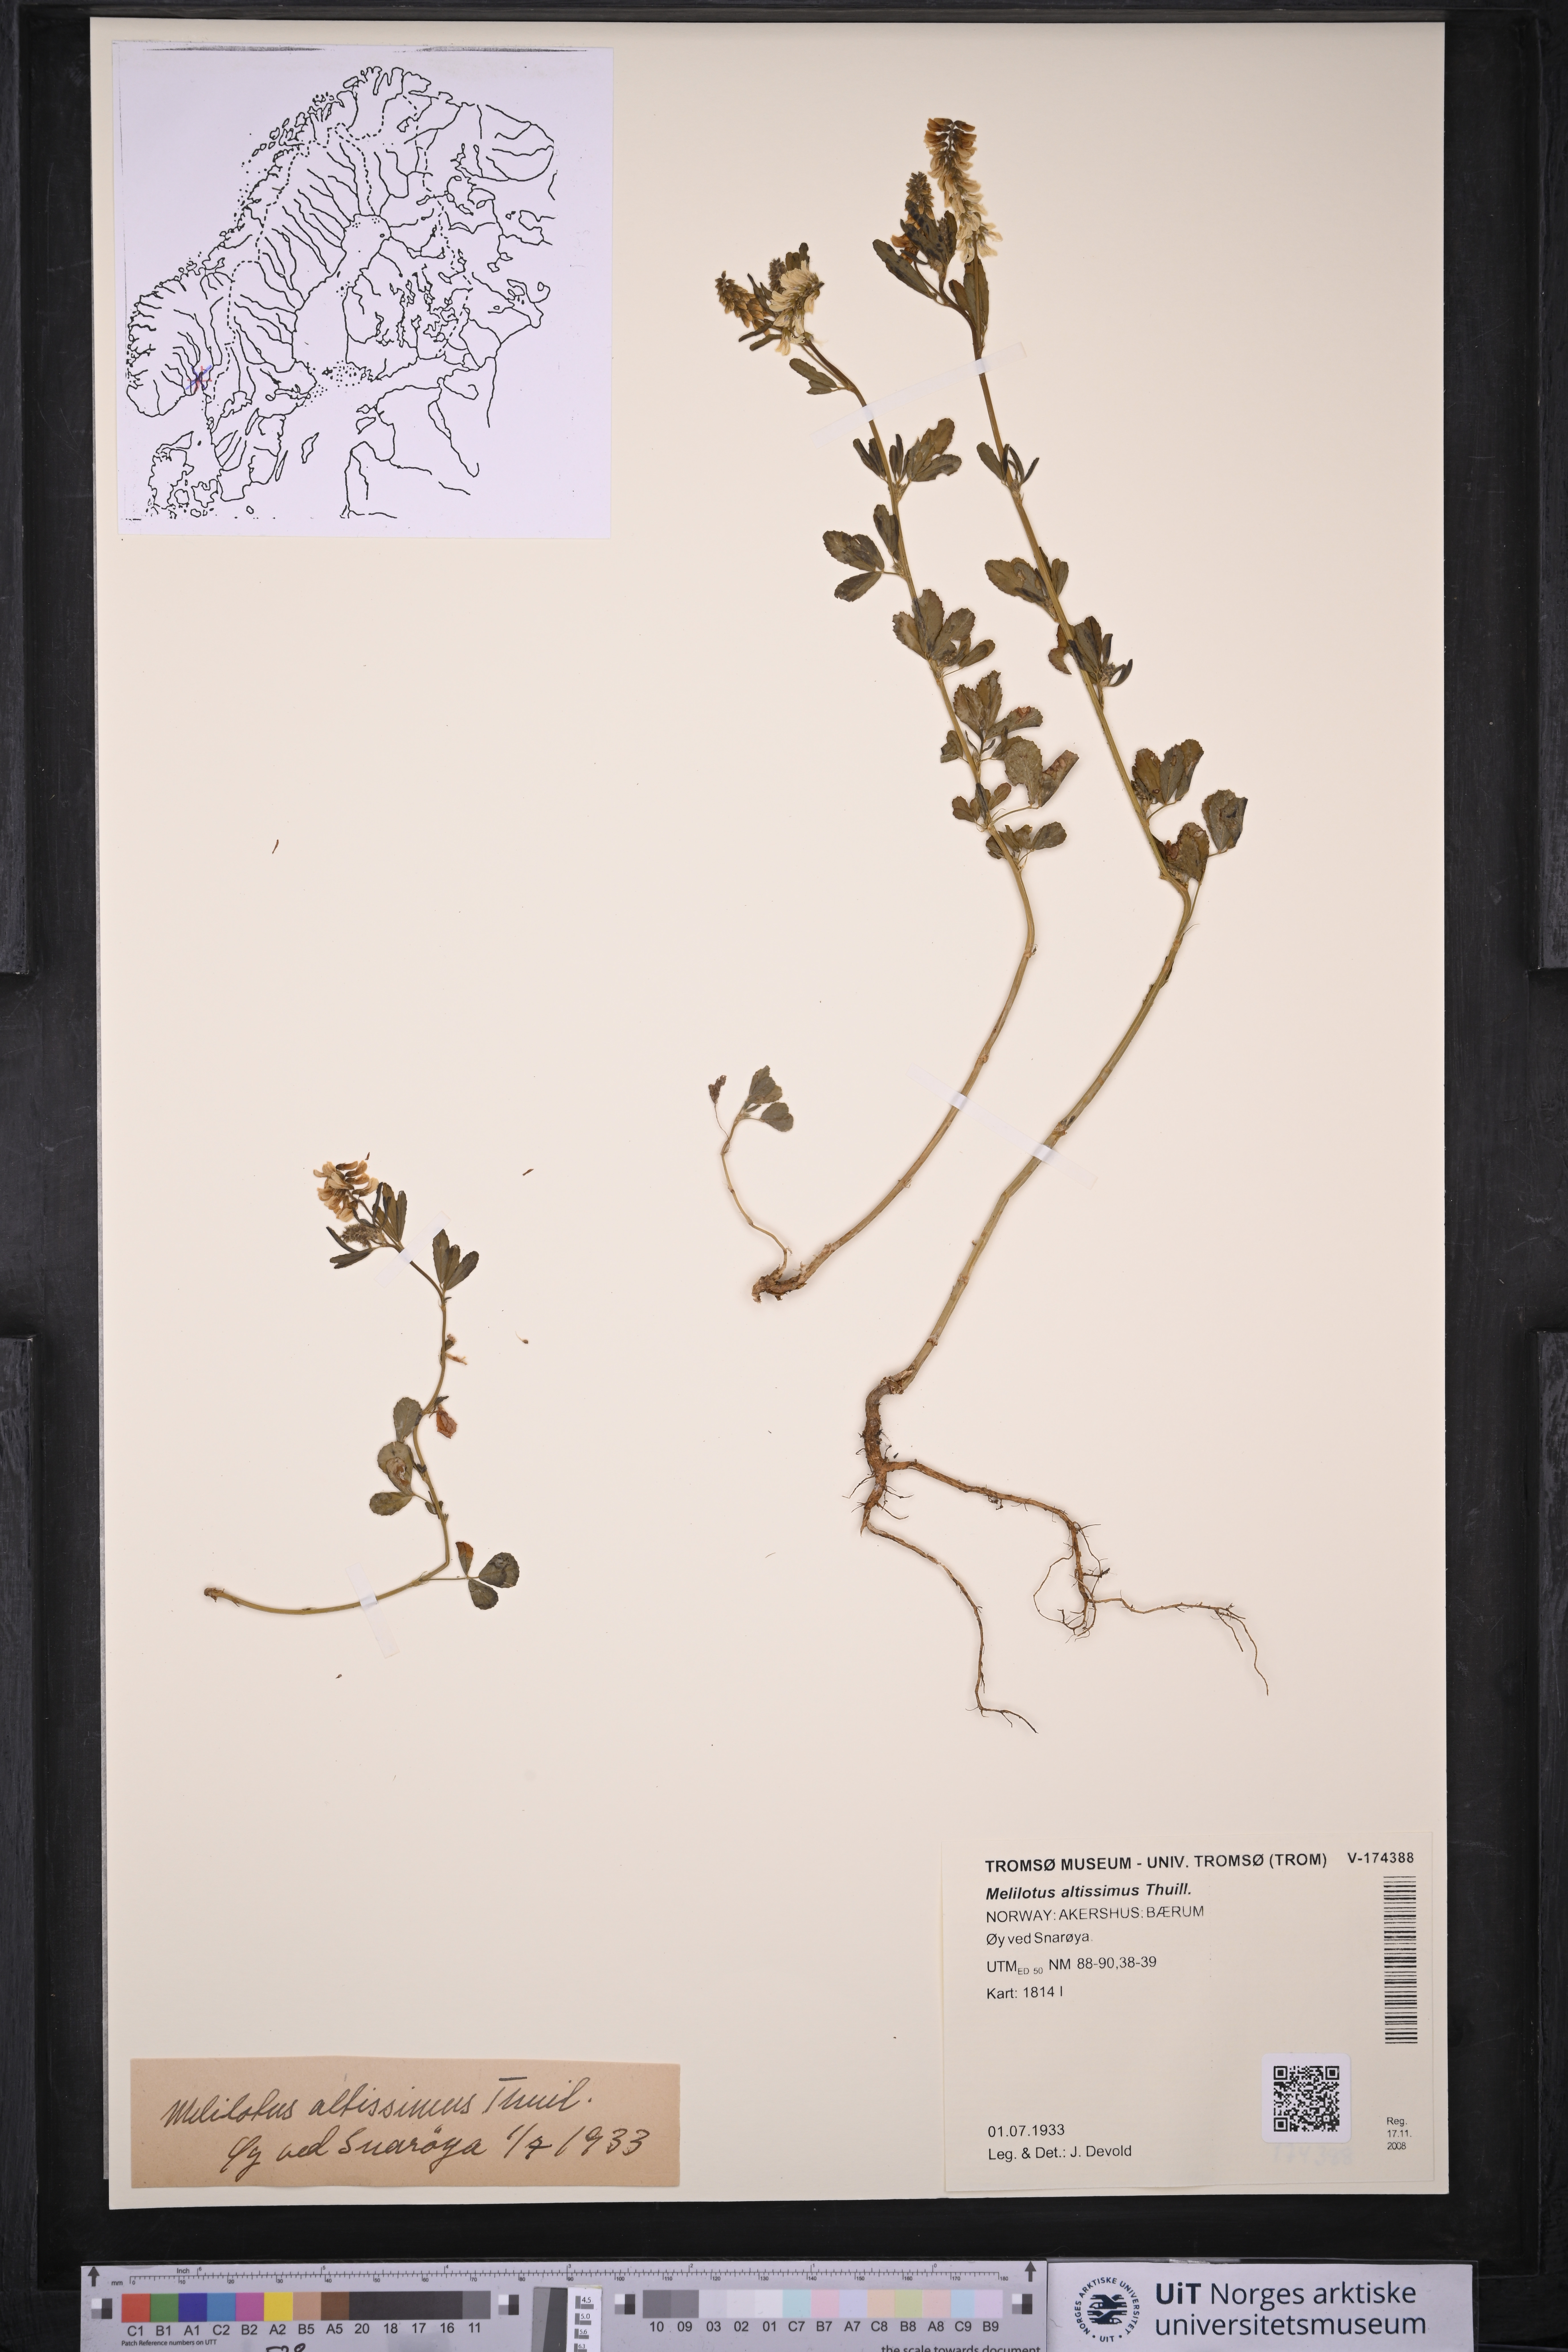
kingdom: Plantae
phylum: Tracheophyta
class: Magnoliopsida
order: Fabales
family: Fabaceae
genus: Melilotus
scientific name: Melilotus altissimus
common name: Tall melilot
